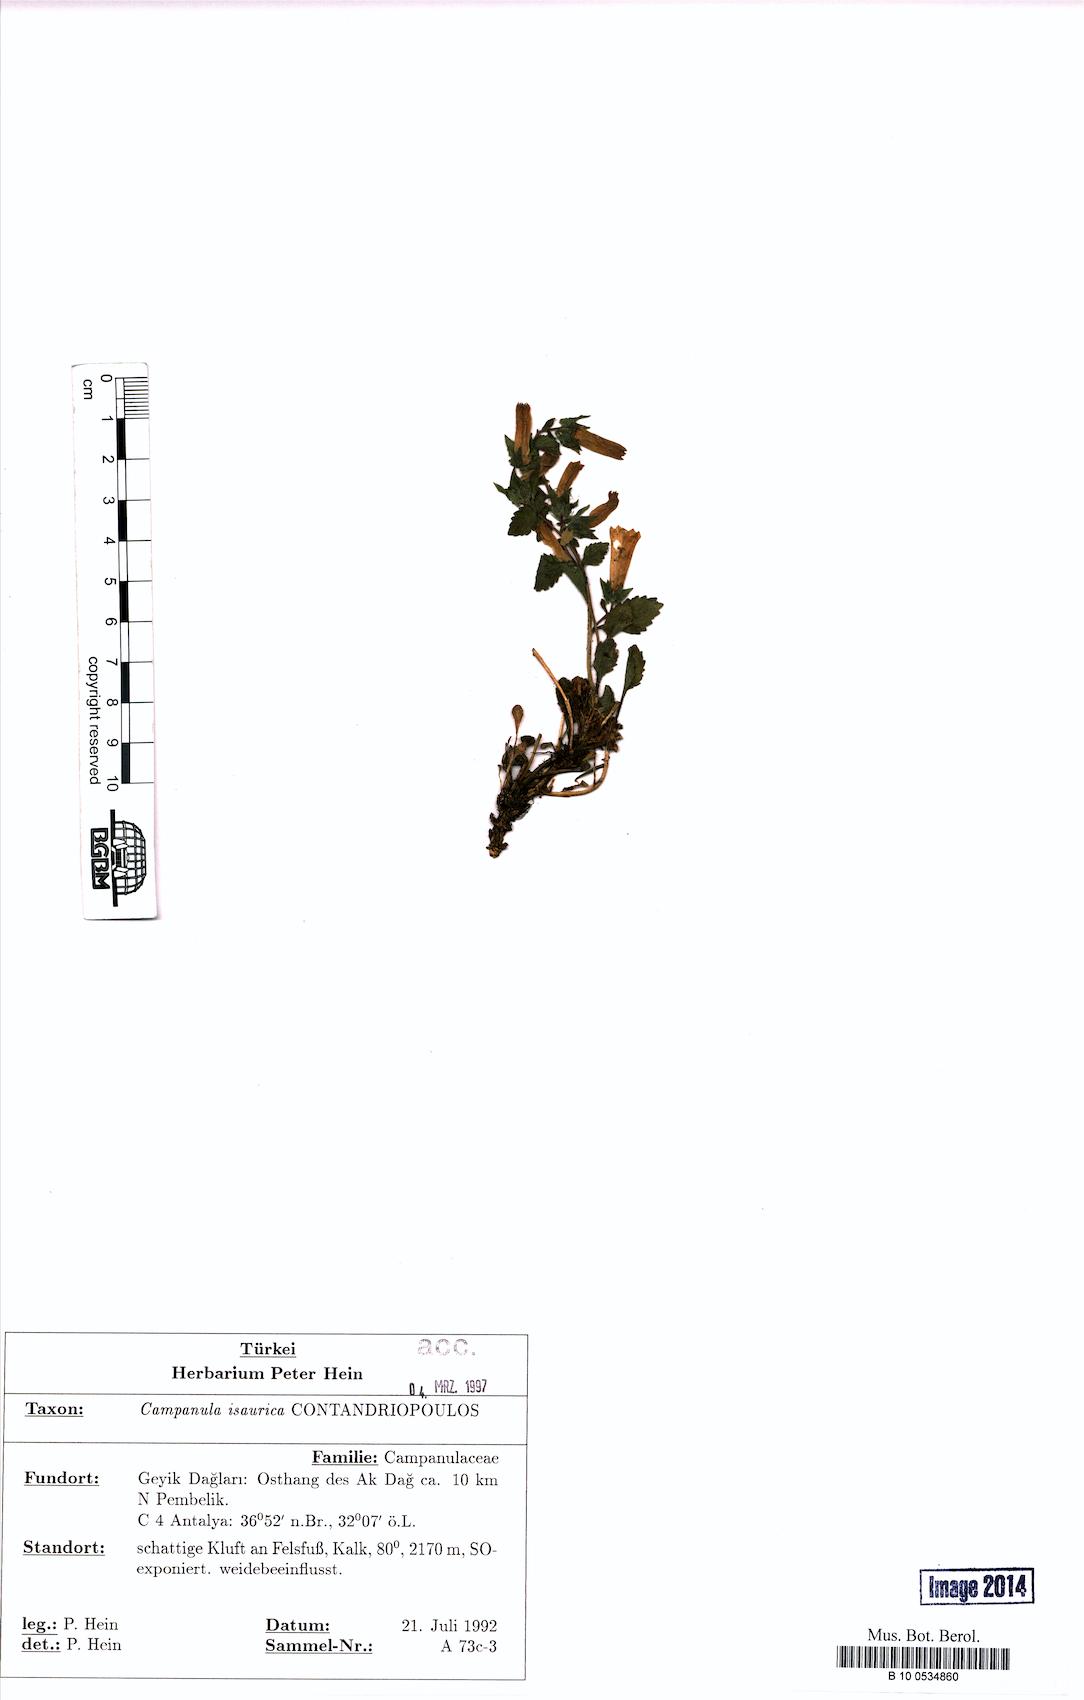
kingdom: Plantae
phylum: Tracheophyta
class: Magnoliopsida
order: Asterales
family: Campanulaceae
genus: Campanula
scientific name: Campanula isaurica
